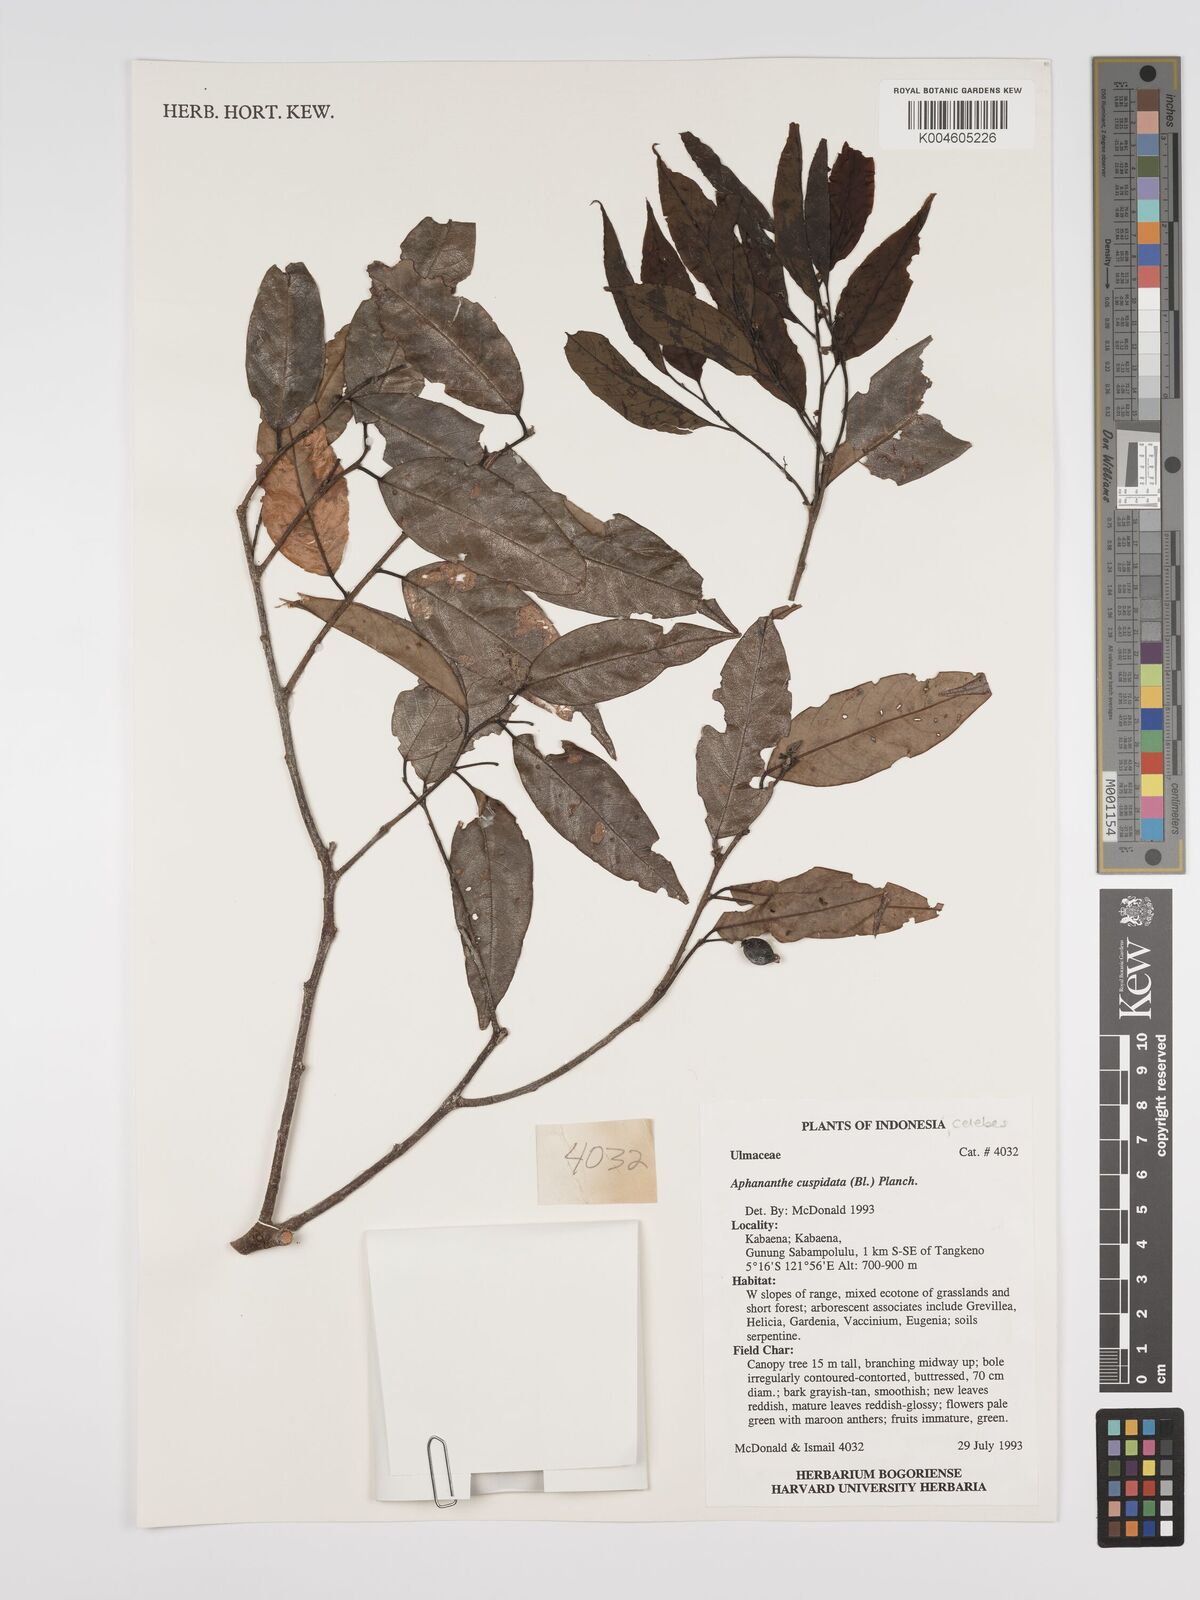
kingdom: Plantae
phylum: Tracheophyta
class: Magnoliopsida
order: Rosales
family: Cannabaceae
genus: Aphananthe
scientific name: Aphananthe cuspidata
